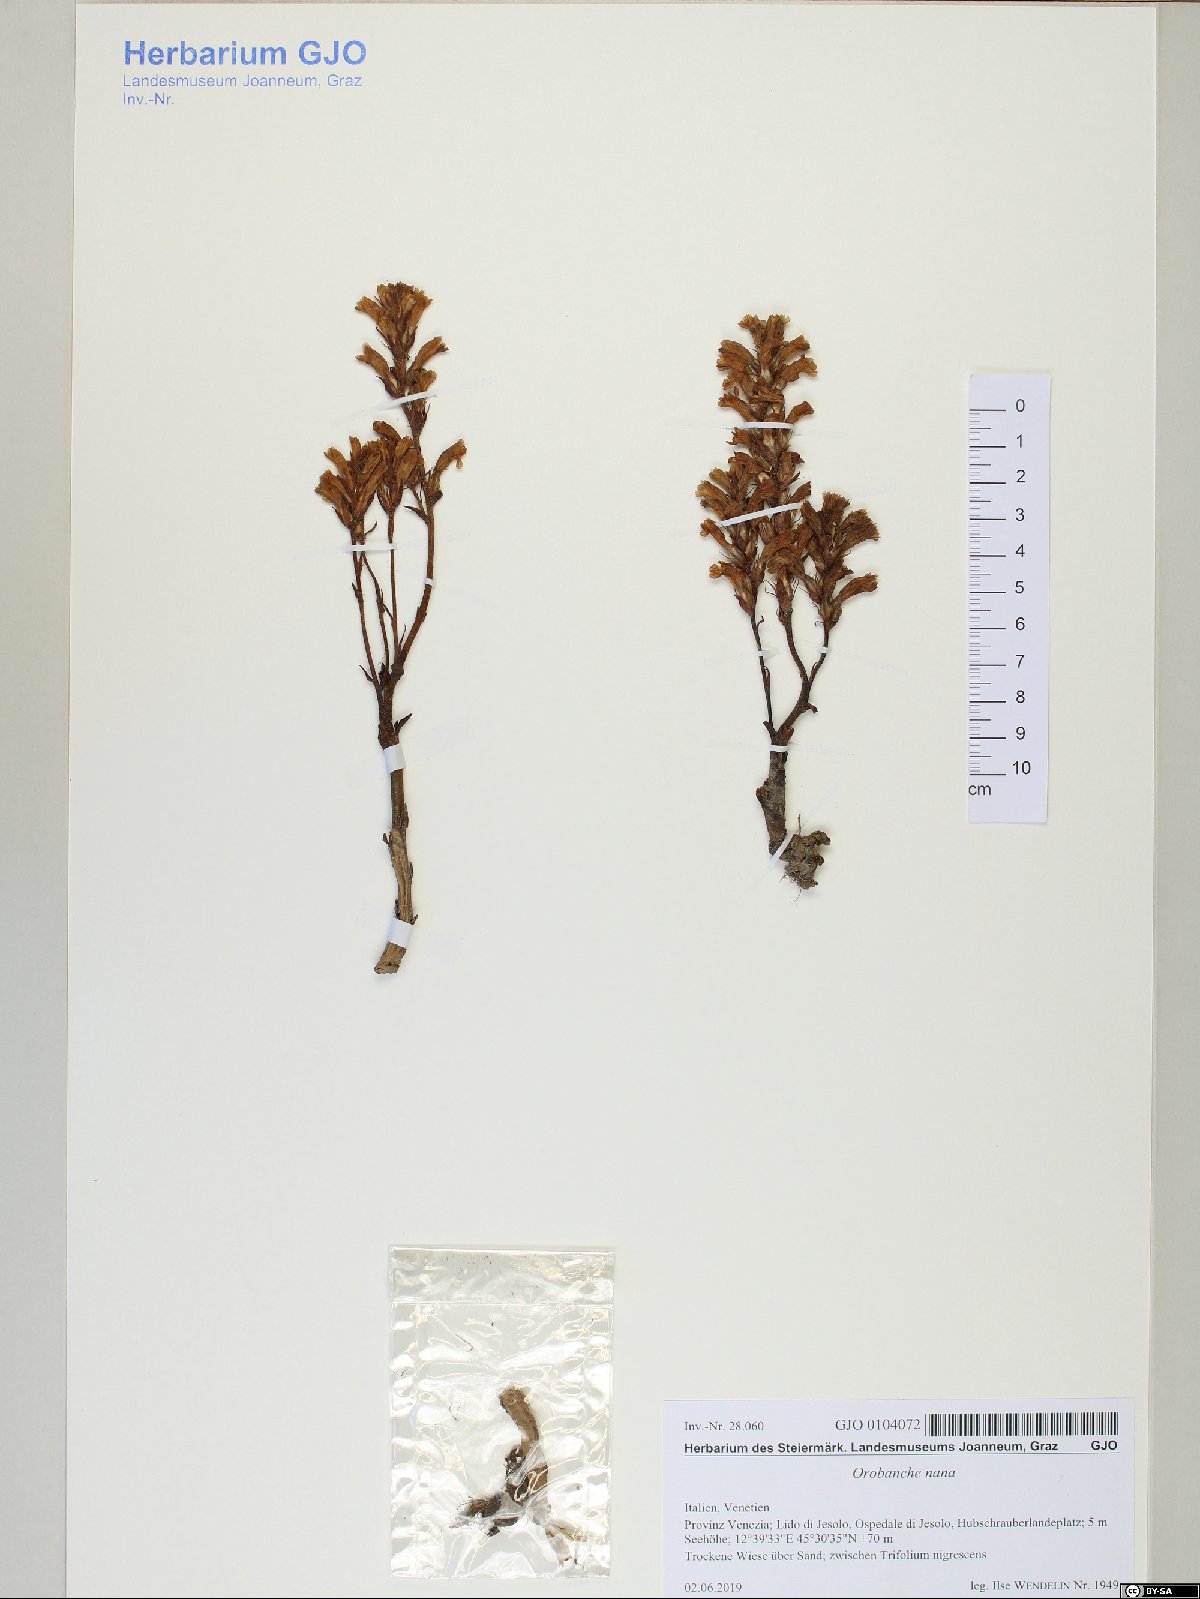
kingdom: Plantae
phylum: Tracheophyta
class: Magnoliopsida
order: Lamiales
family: Orobanchaceae
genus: Phelipanche
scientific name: Phelipanche mutelii
